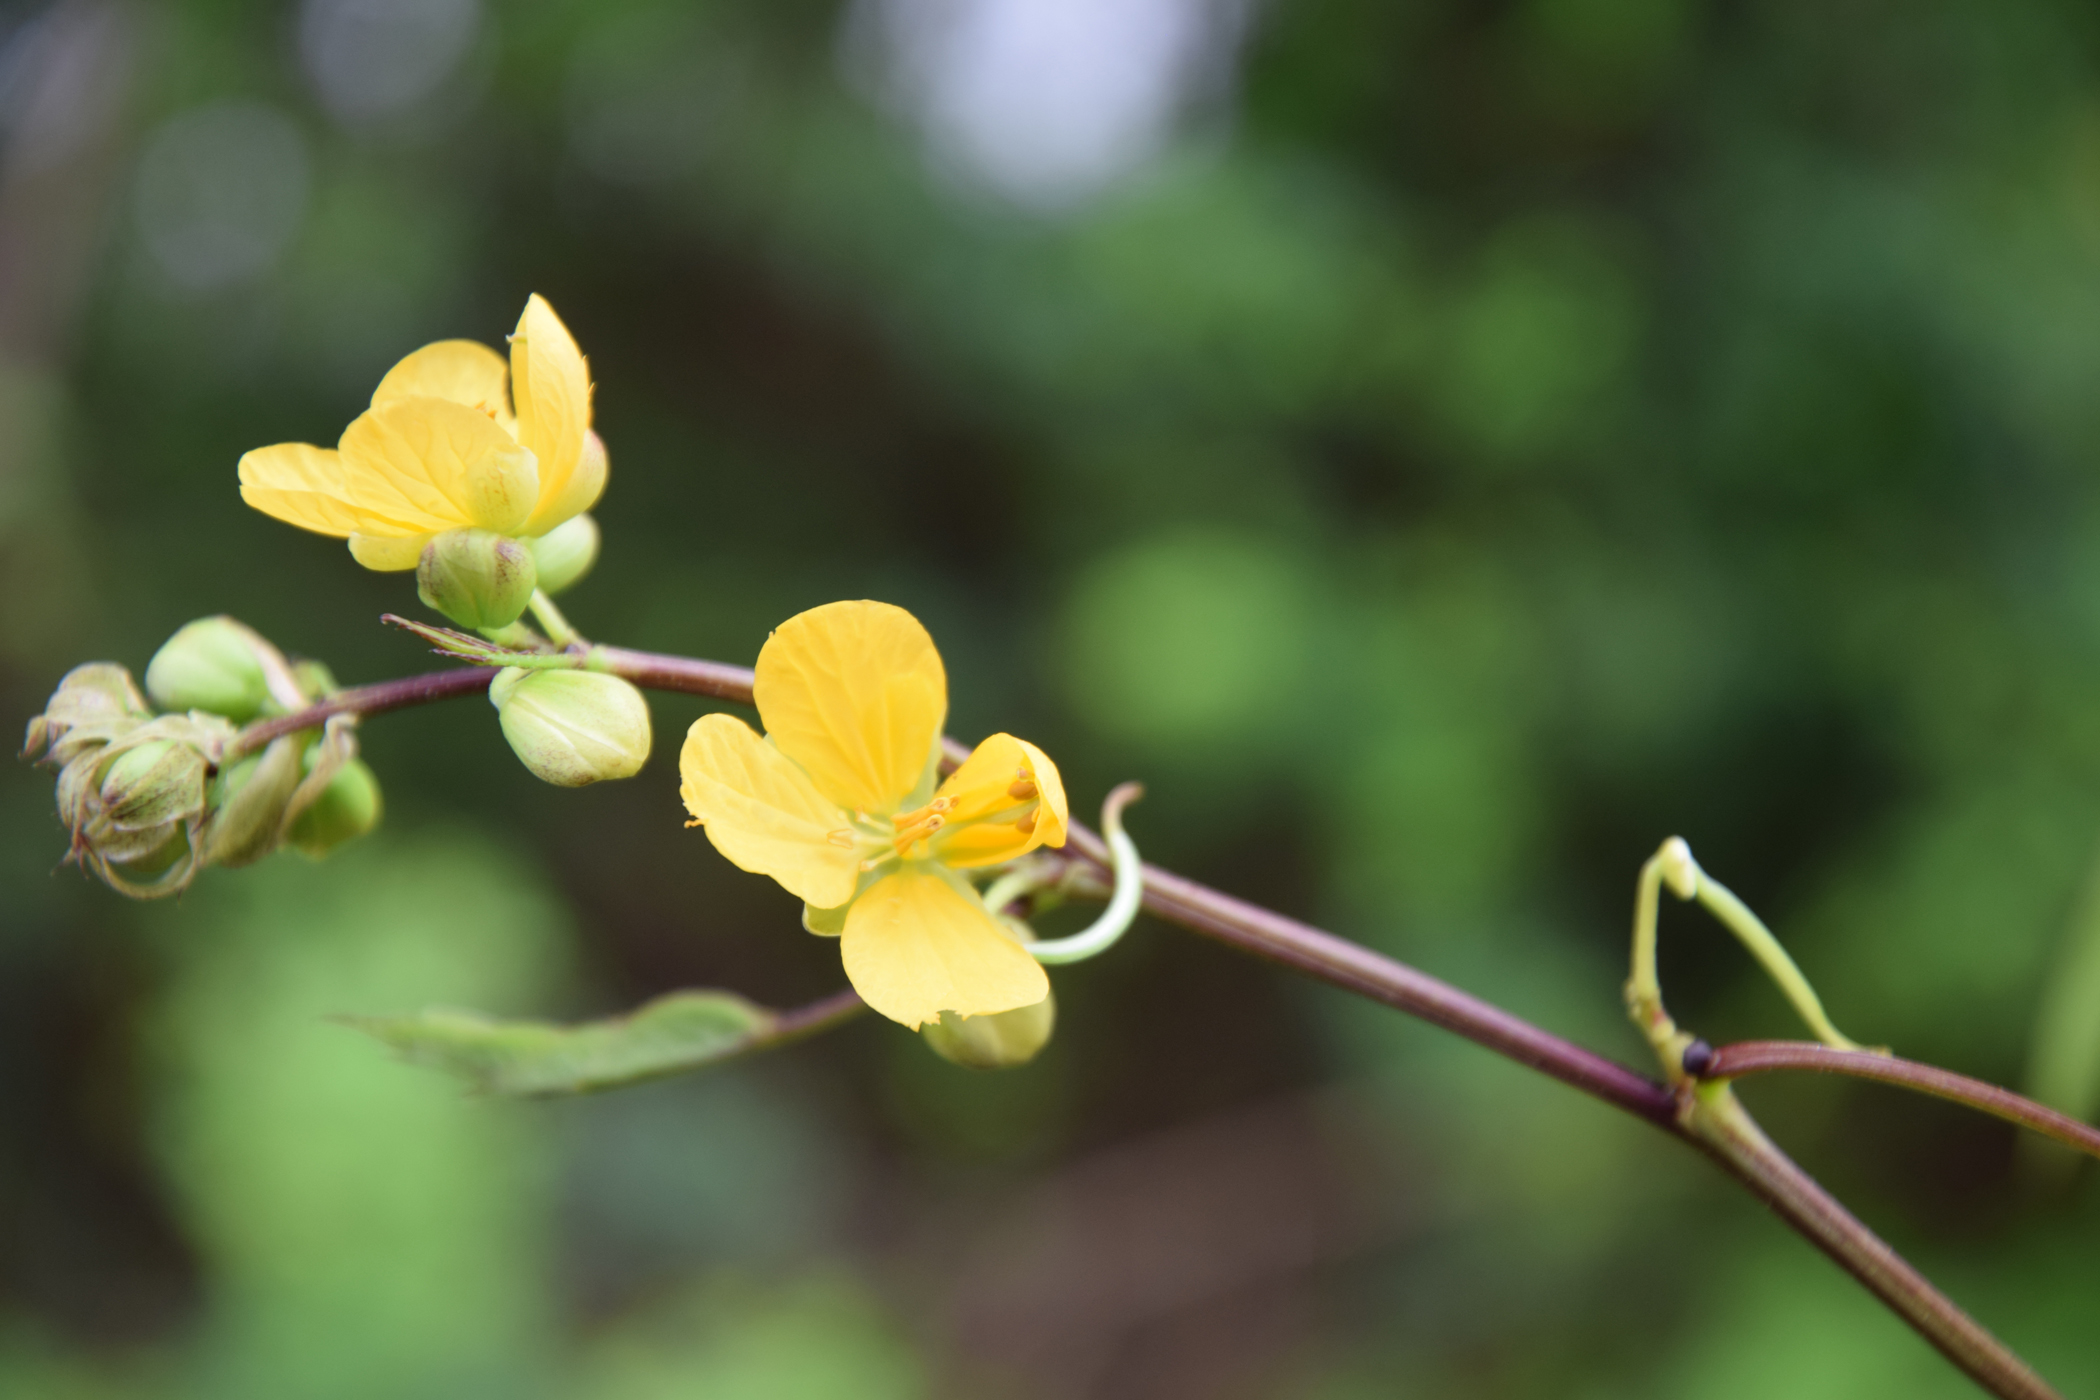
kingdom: Plantae
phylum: Tracheophyta
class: Magnoliopsida
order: Fabales
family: Fabaceae
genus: Senna
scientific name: Senna occidentalis
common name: Septicweed
